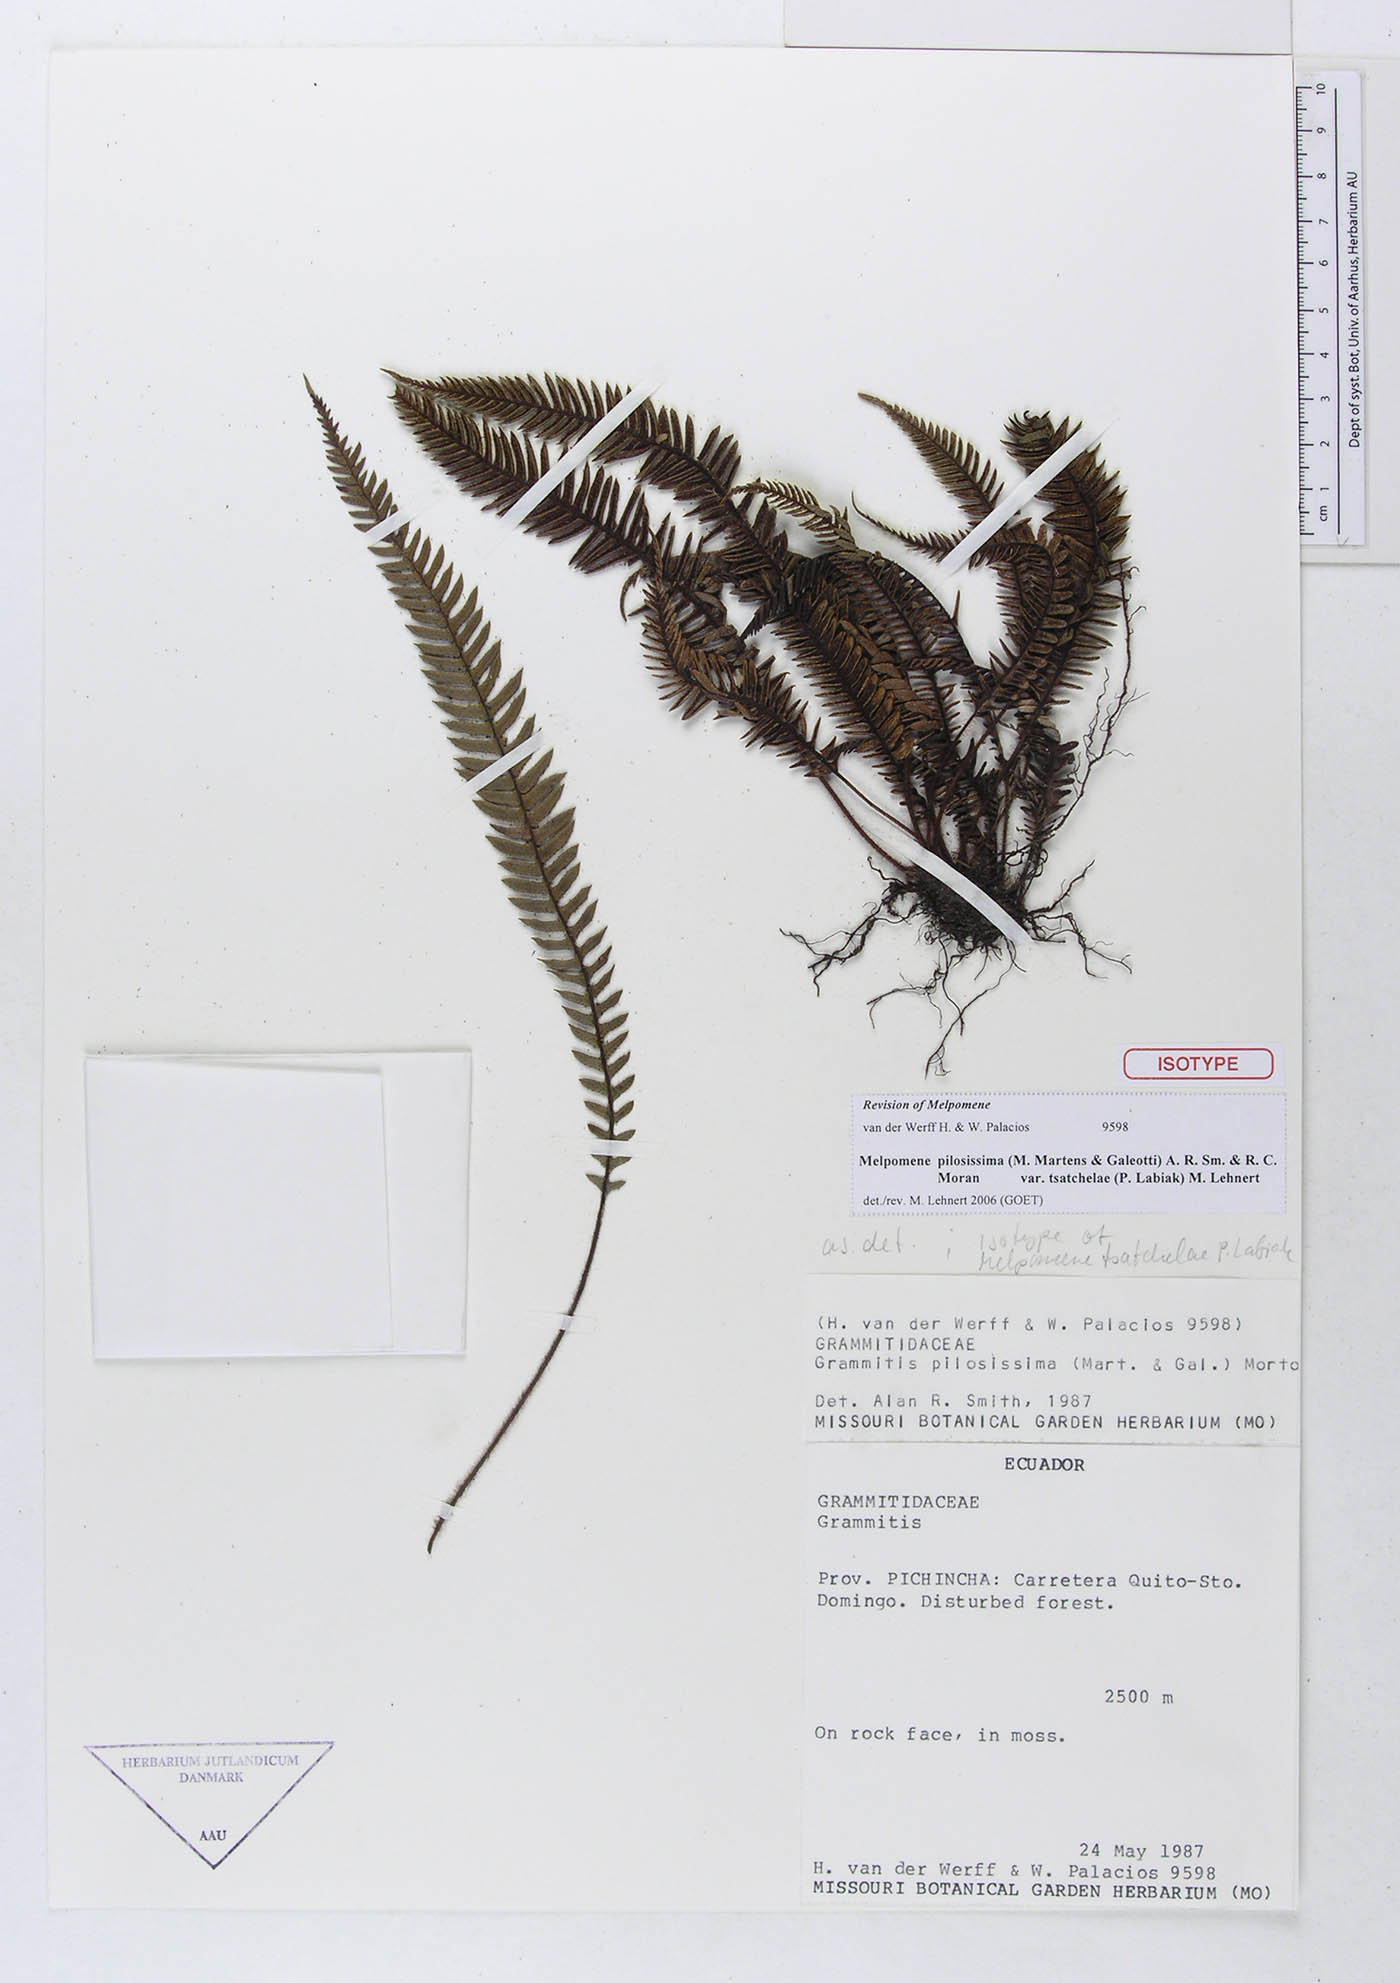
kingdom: Plantae
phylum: Tracheophyta
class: Polypodiopsida
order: Polypodiales
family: Polypodiaceae
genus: Melpomene
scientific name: Melpomene pilosissima
